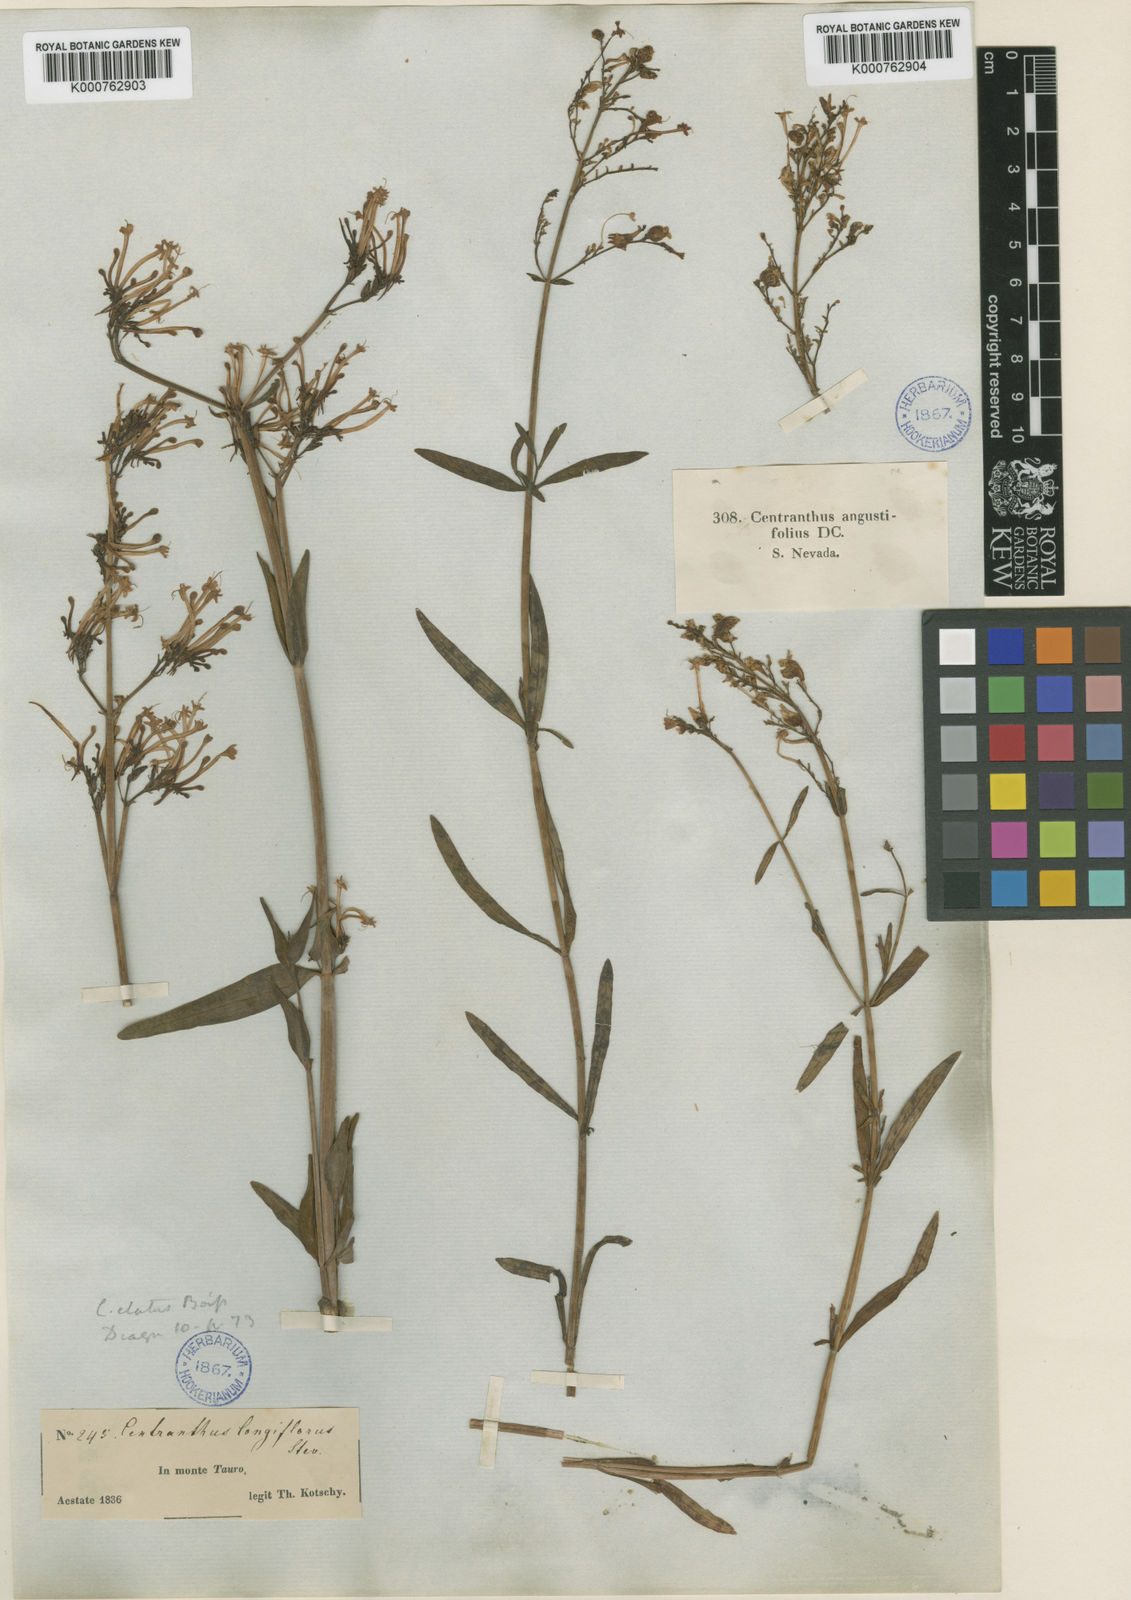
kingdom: Plantae
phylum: Tracheophyta
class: Magnoliopsida
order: Dipsacales
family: Caprifoliaceae
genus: Centranthus
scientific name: Centranthus longiflorus
